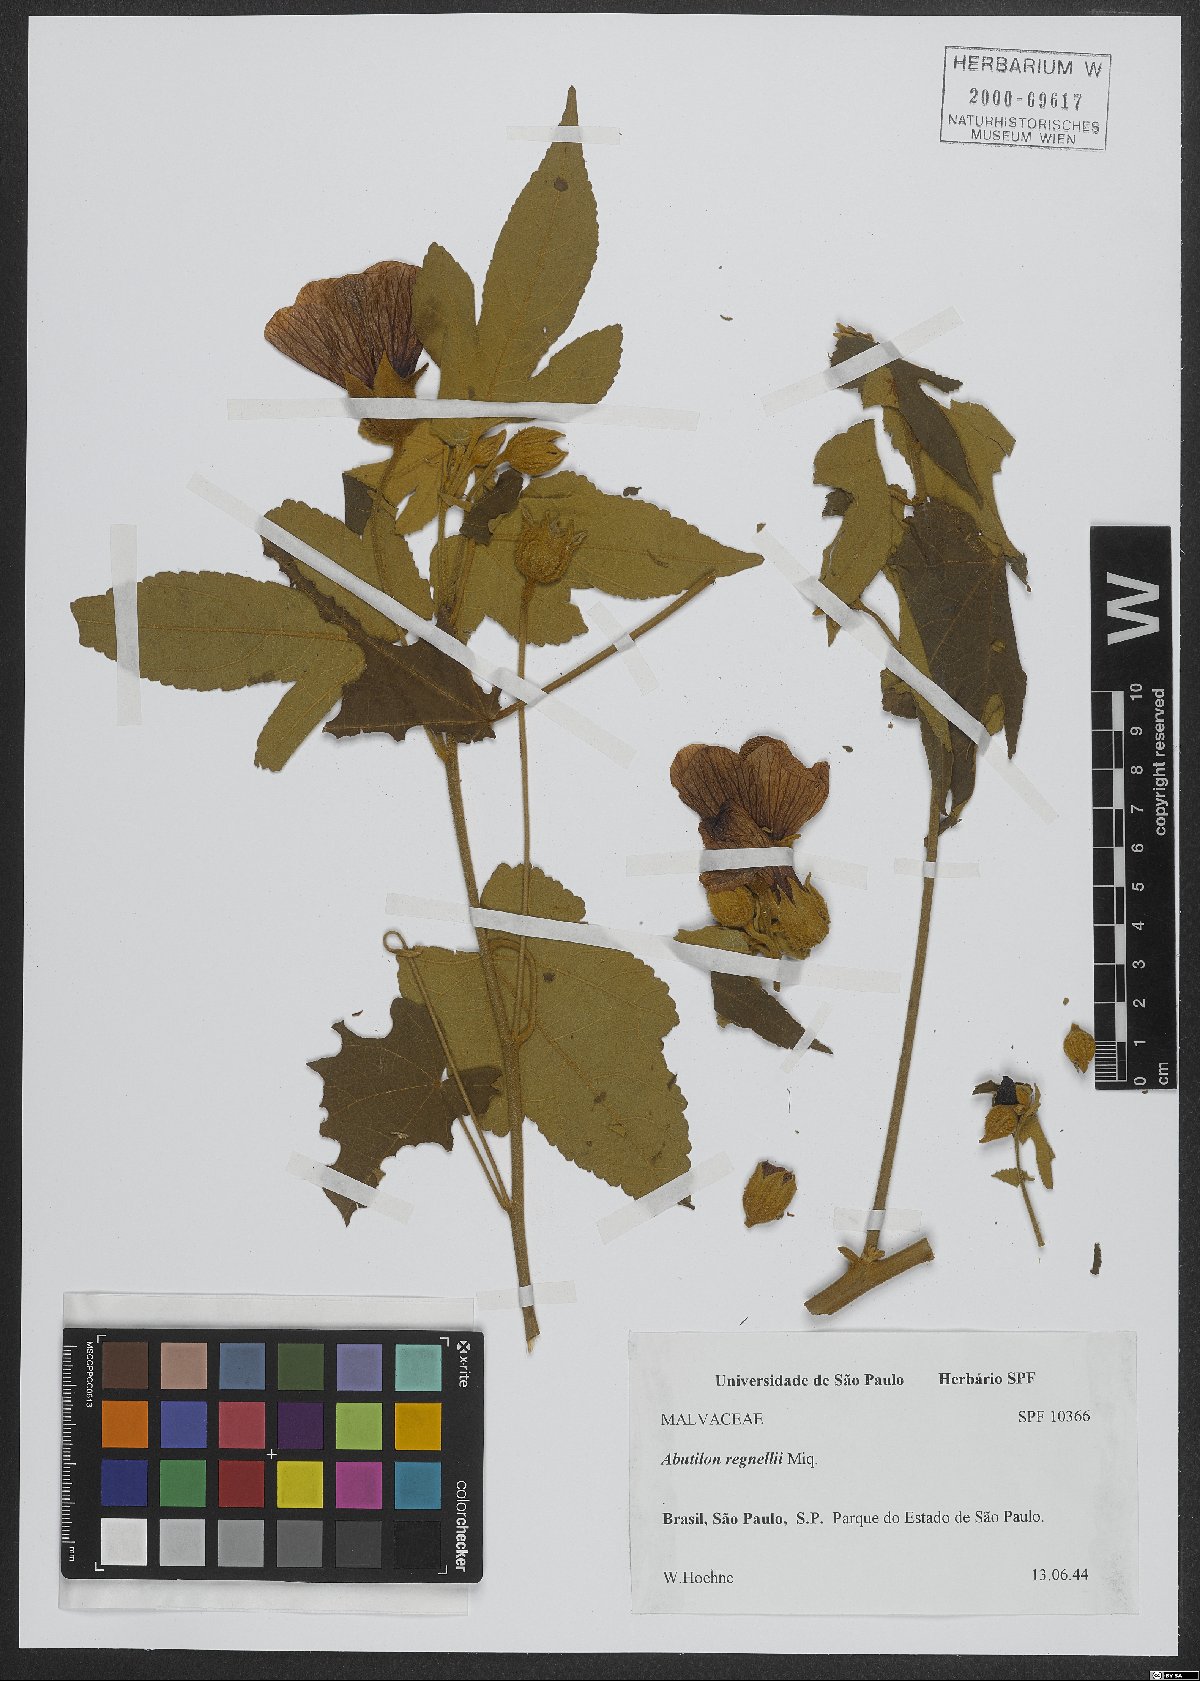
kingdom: Plantae
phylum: Tracheophyta
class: Magnoliopsida
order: Malvales
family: Malvaceae
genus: Callianthe
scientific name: Callianthe regnellii
